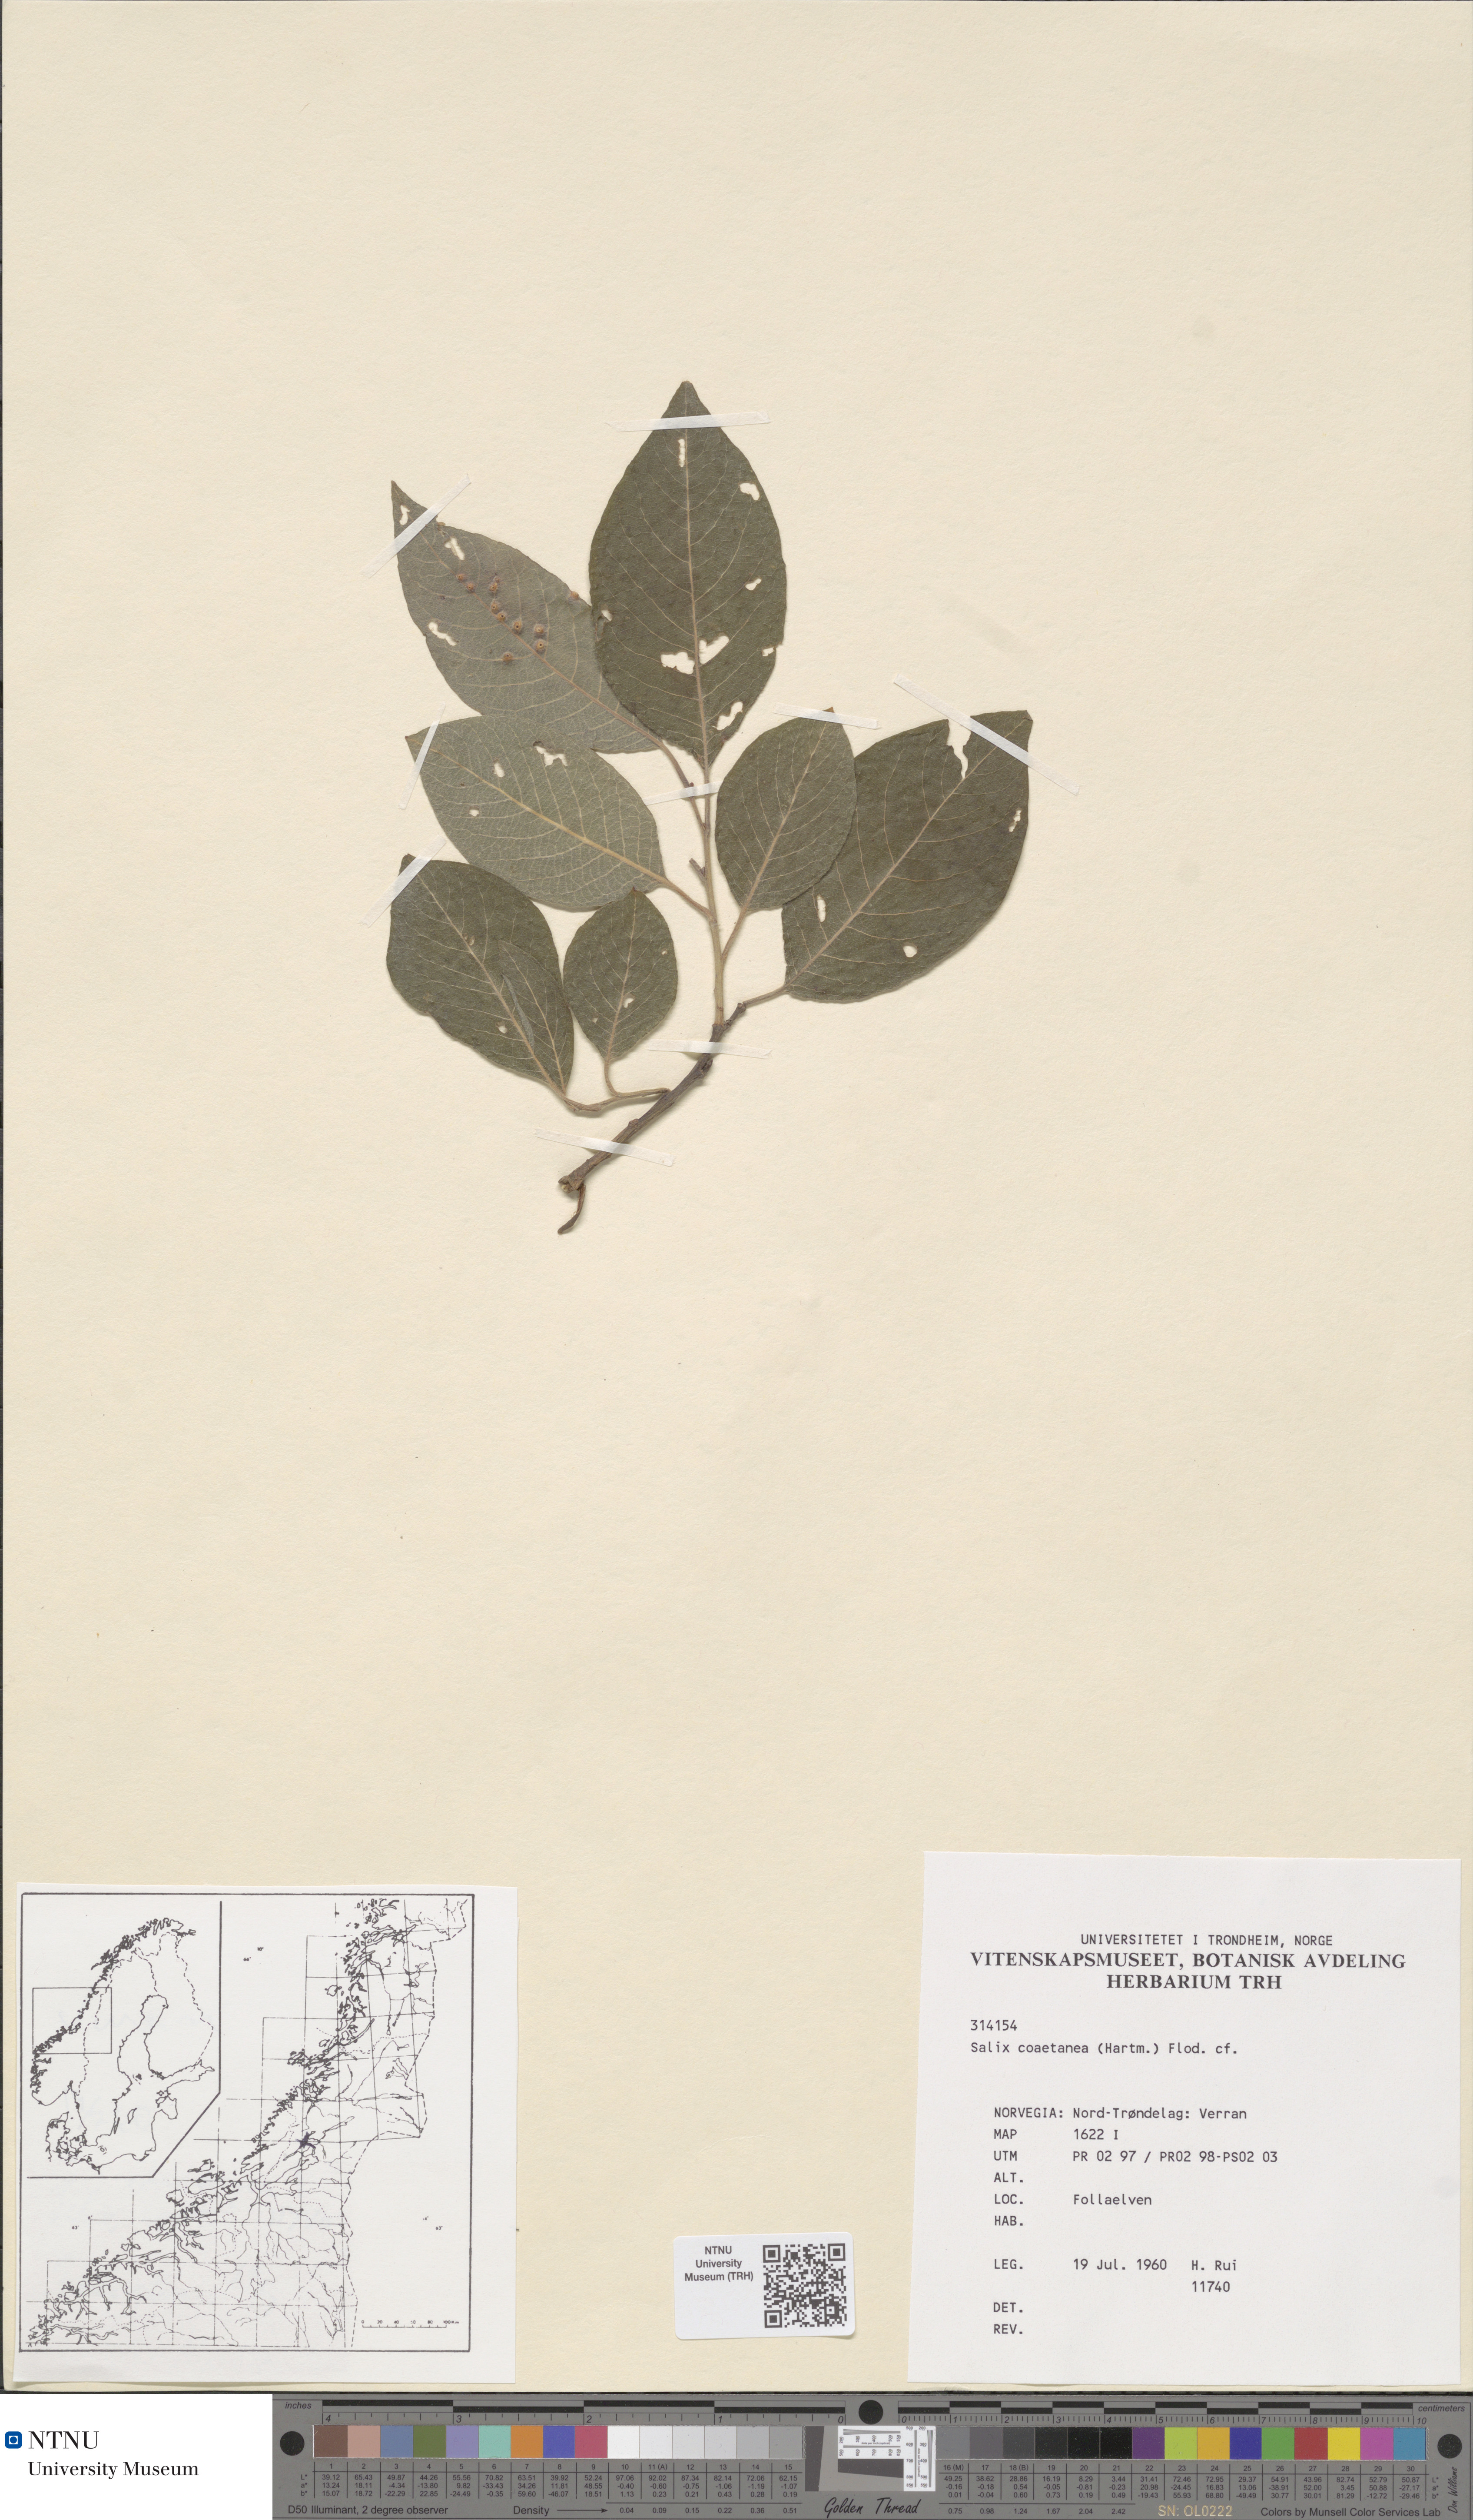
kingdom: Plantae
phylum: Tracheophyta
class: Magnoliopsida
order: Malpighiales
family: Salicaceae
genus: Salix
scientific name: Salix caprea
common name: Goat willow
